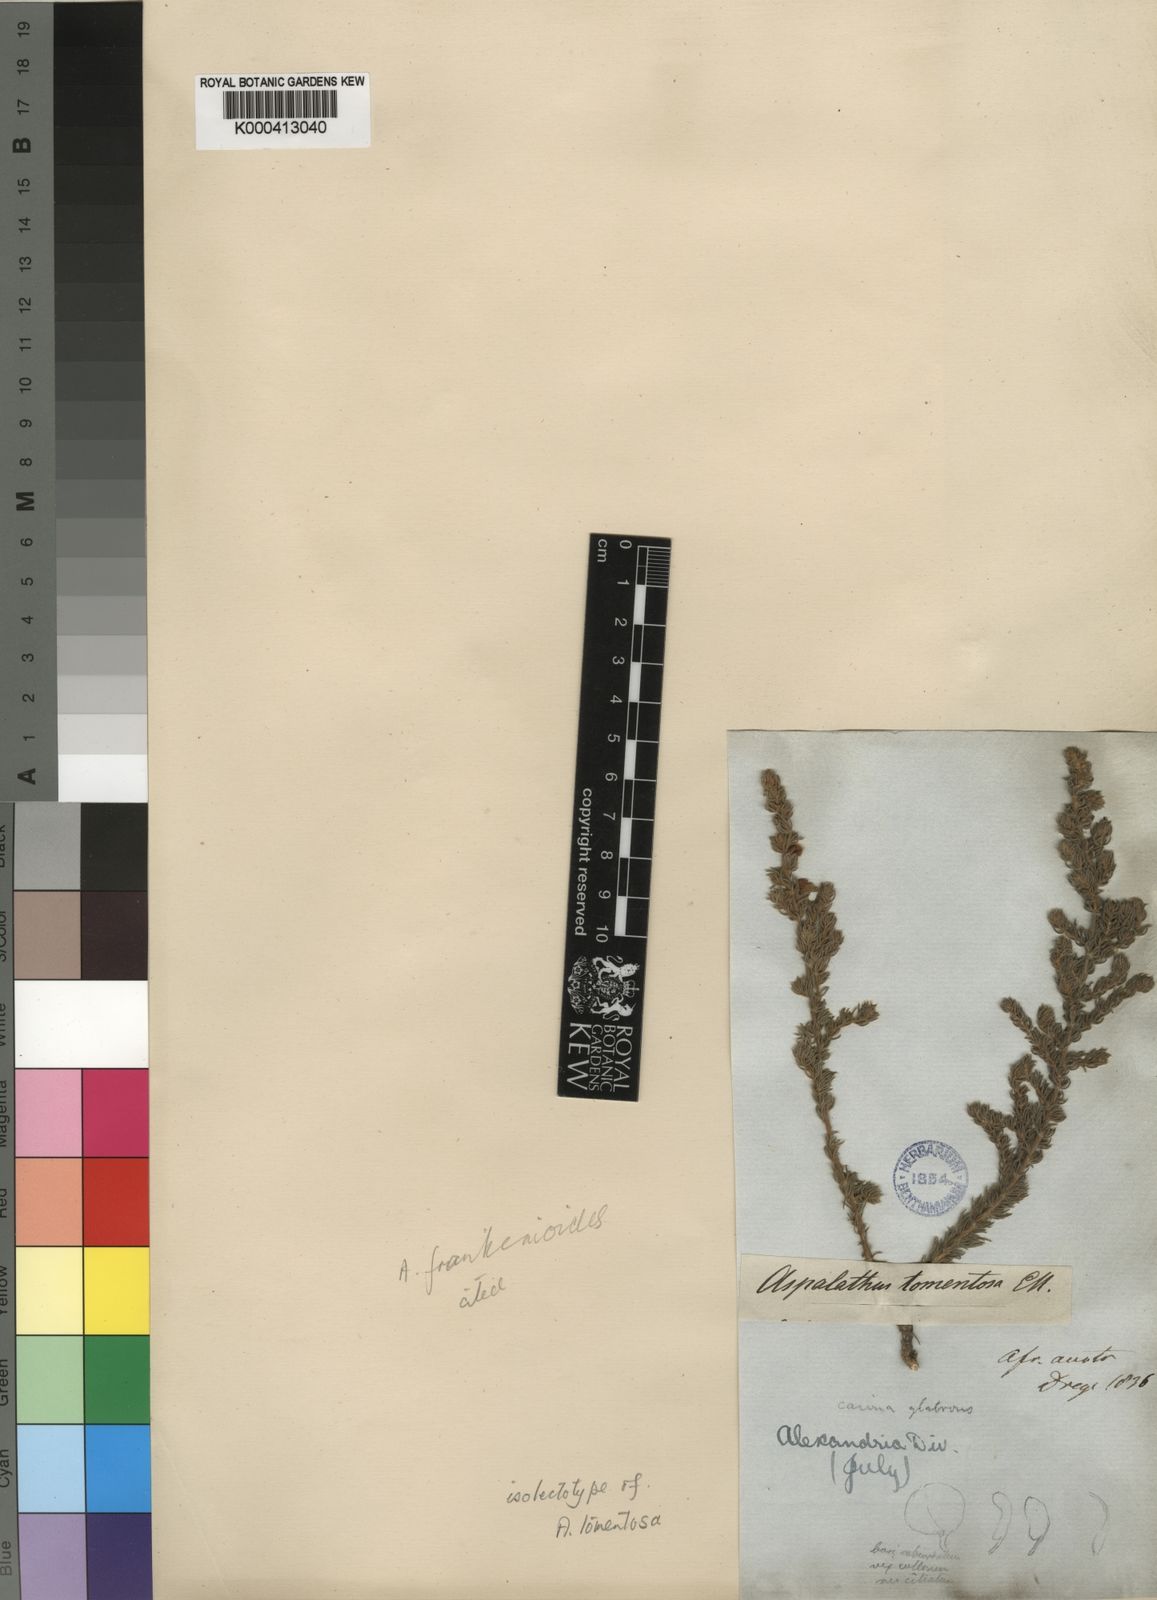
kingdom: Plantae
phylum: Tracheophyta
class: Magnoliopsida
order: Fabales
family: Fabaceae
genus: Aspalathus
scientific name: Aspalathus frankenioides
